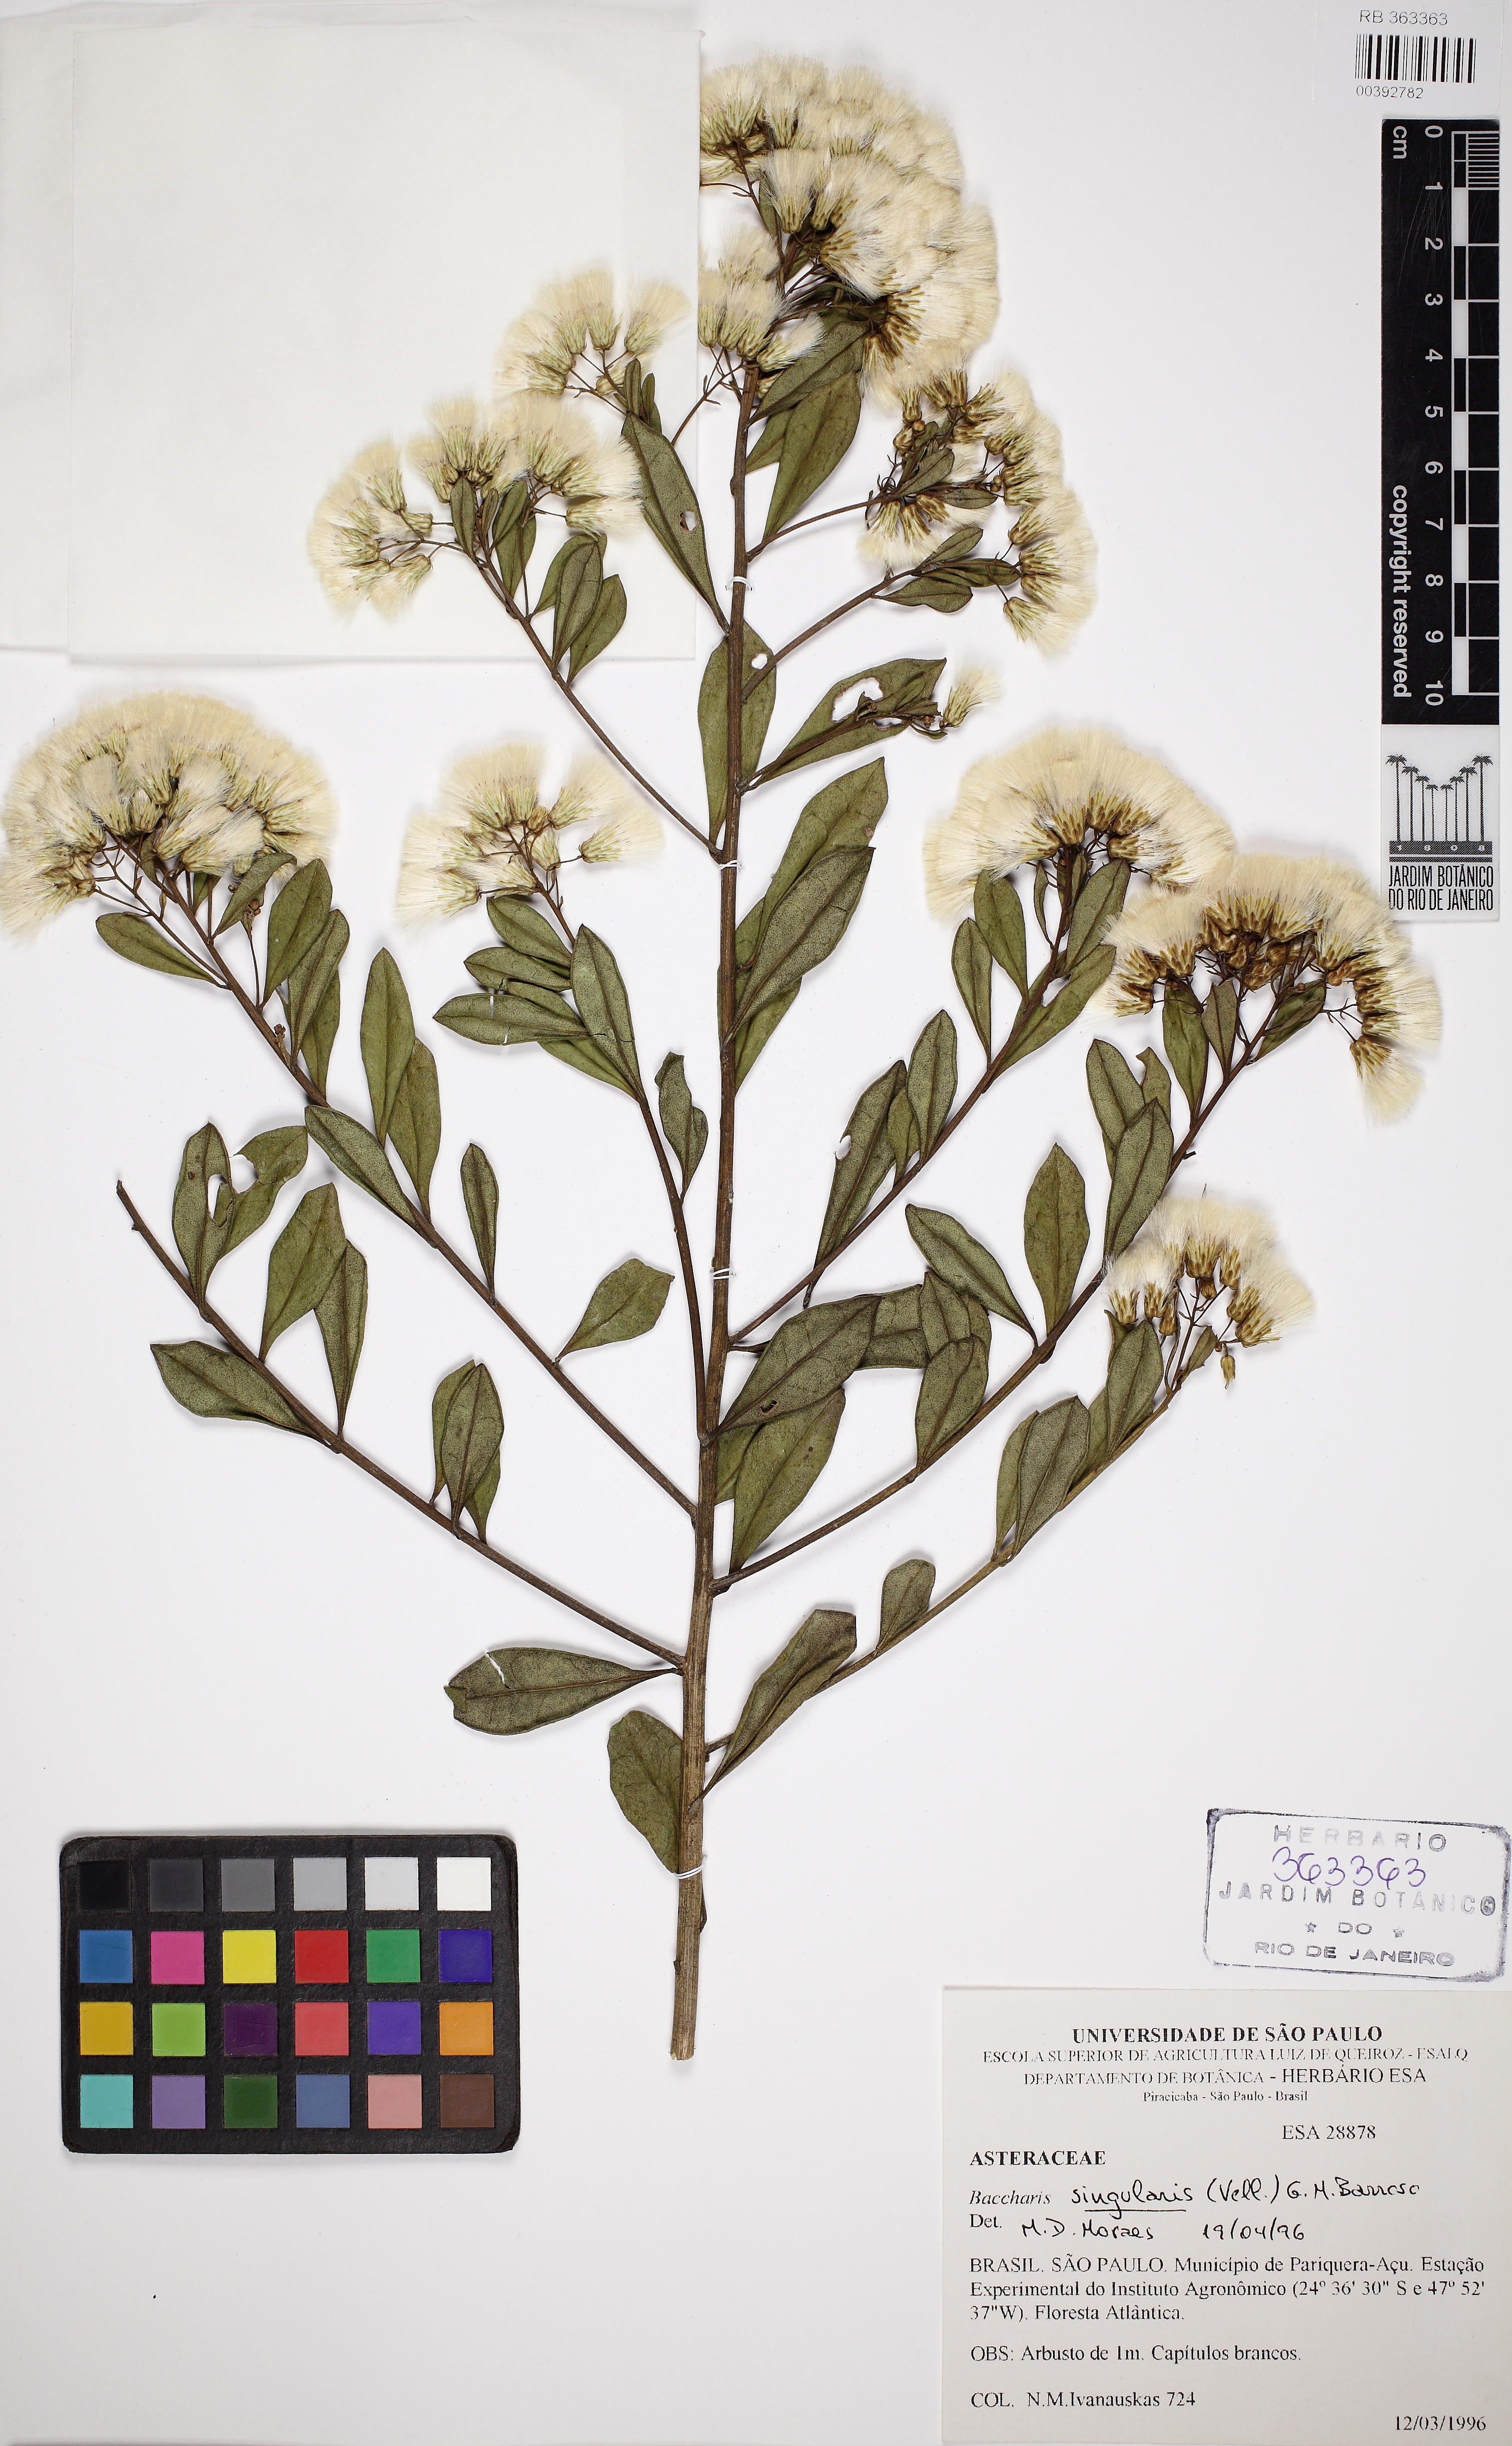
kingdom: Plantae
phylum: Tracheophyta
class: Magnoliopsida
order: Asterales
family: Asteraceae
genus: Baccharis
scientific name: Baccharis singularis
